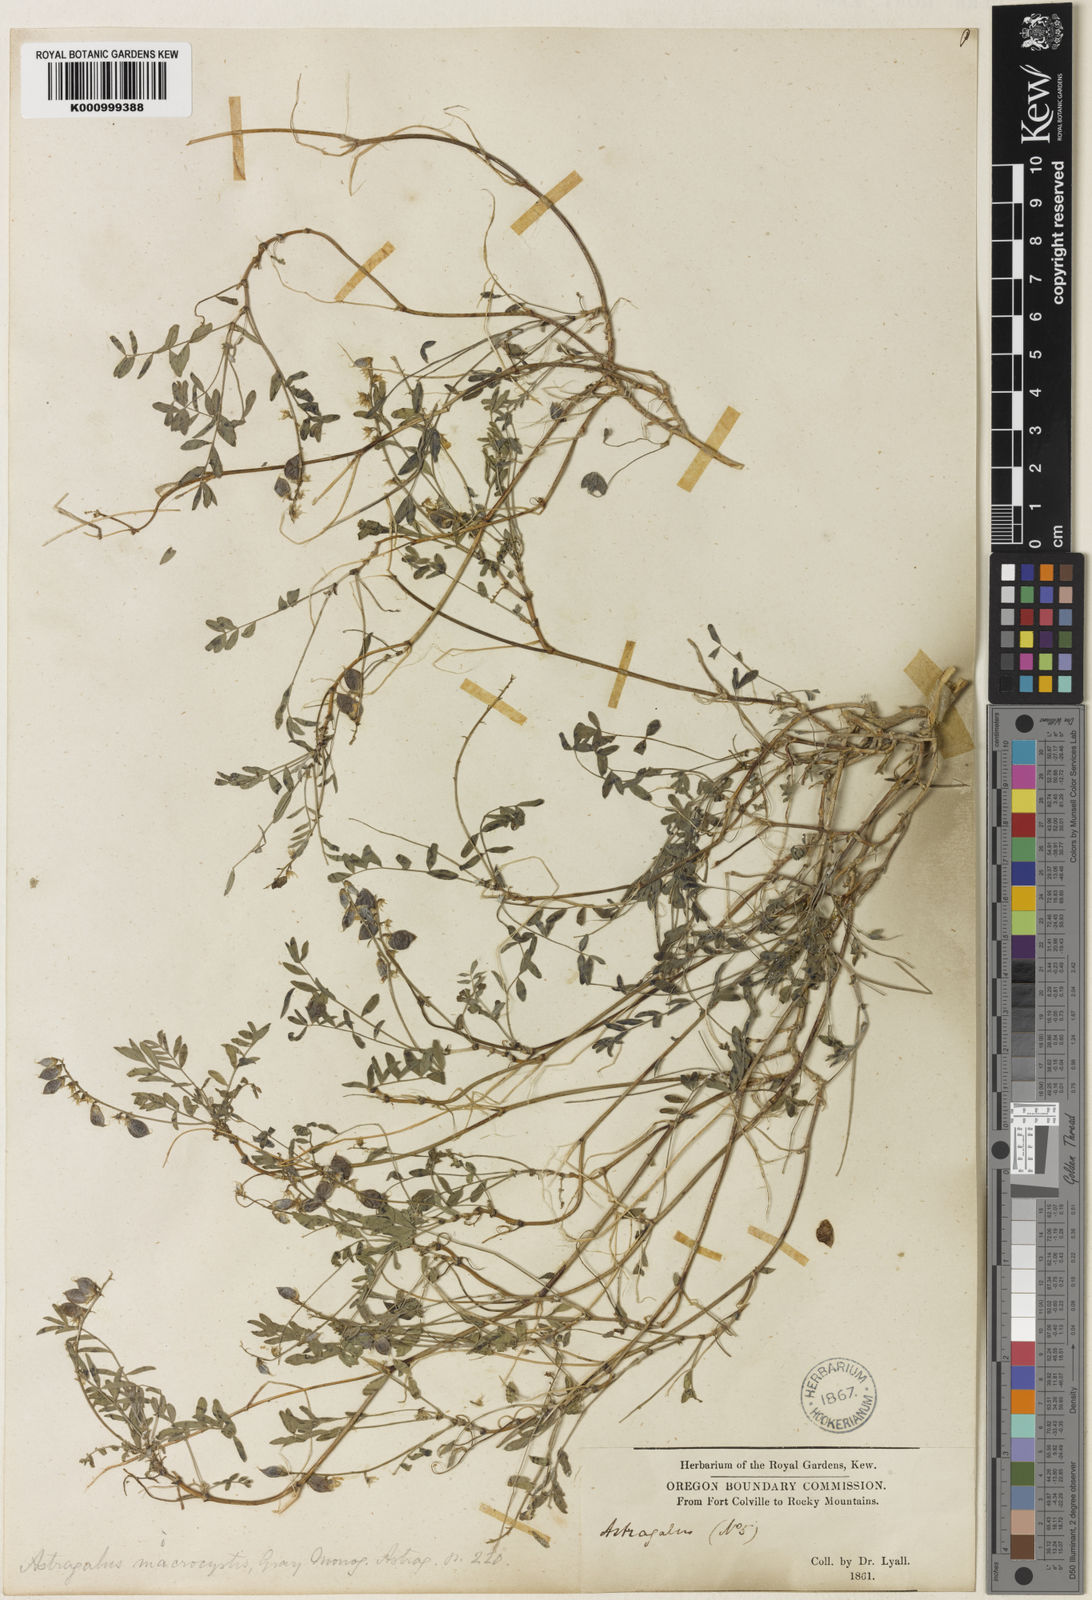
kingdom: Plantae
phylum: Tracheophyta
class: Magnoliopsida
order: Fabales
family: Fabaceae
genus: Astragalus
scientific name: Astragalus microcystis
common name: Dwarf milk-vetch
